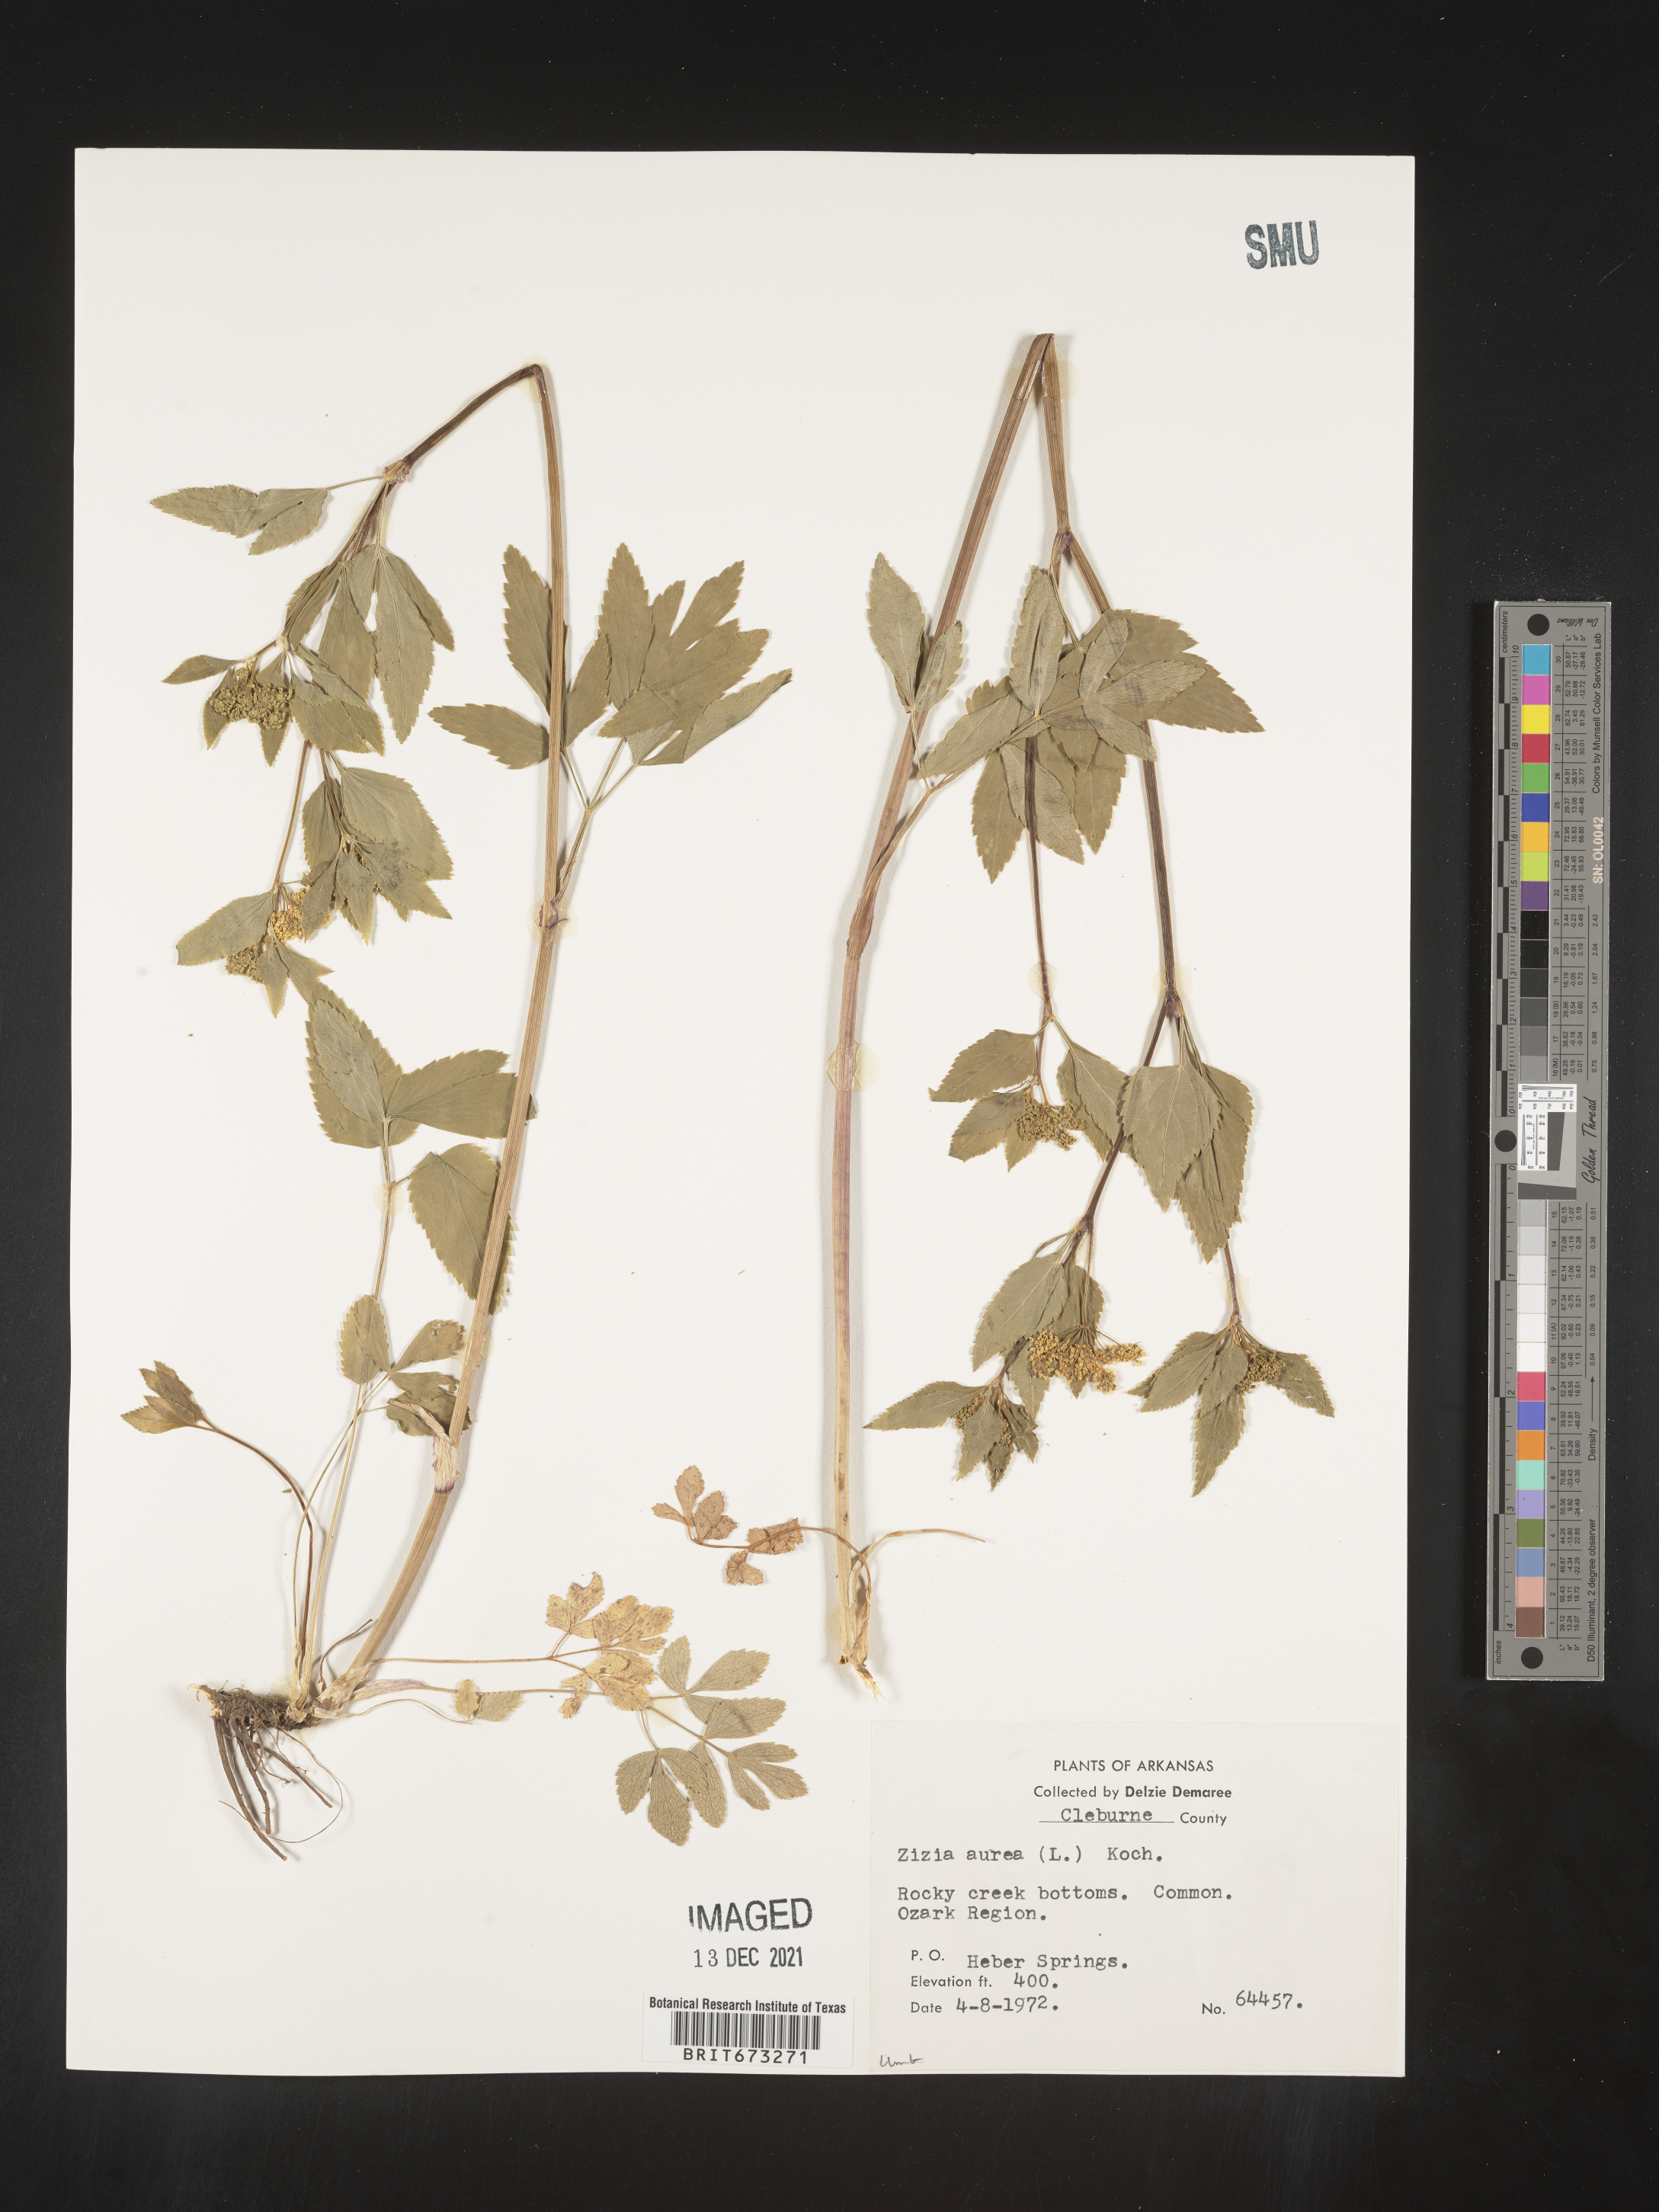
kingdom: Plantae
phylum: Tracheophyta
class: Magnoliopsida
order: Apiales
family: Apiaceae
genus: Zizia
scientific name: Zizia aurea
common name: Golden alexanders
